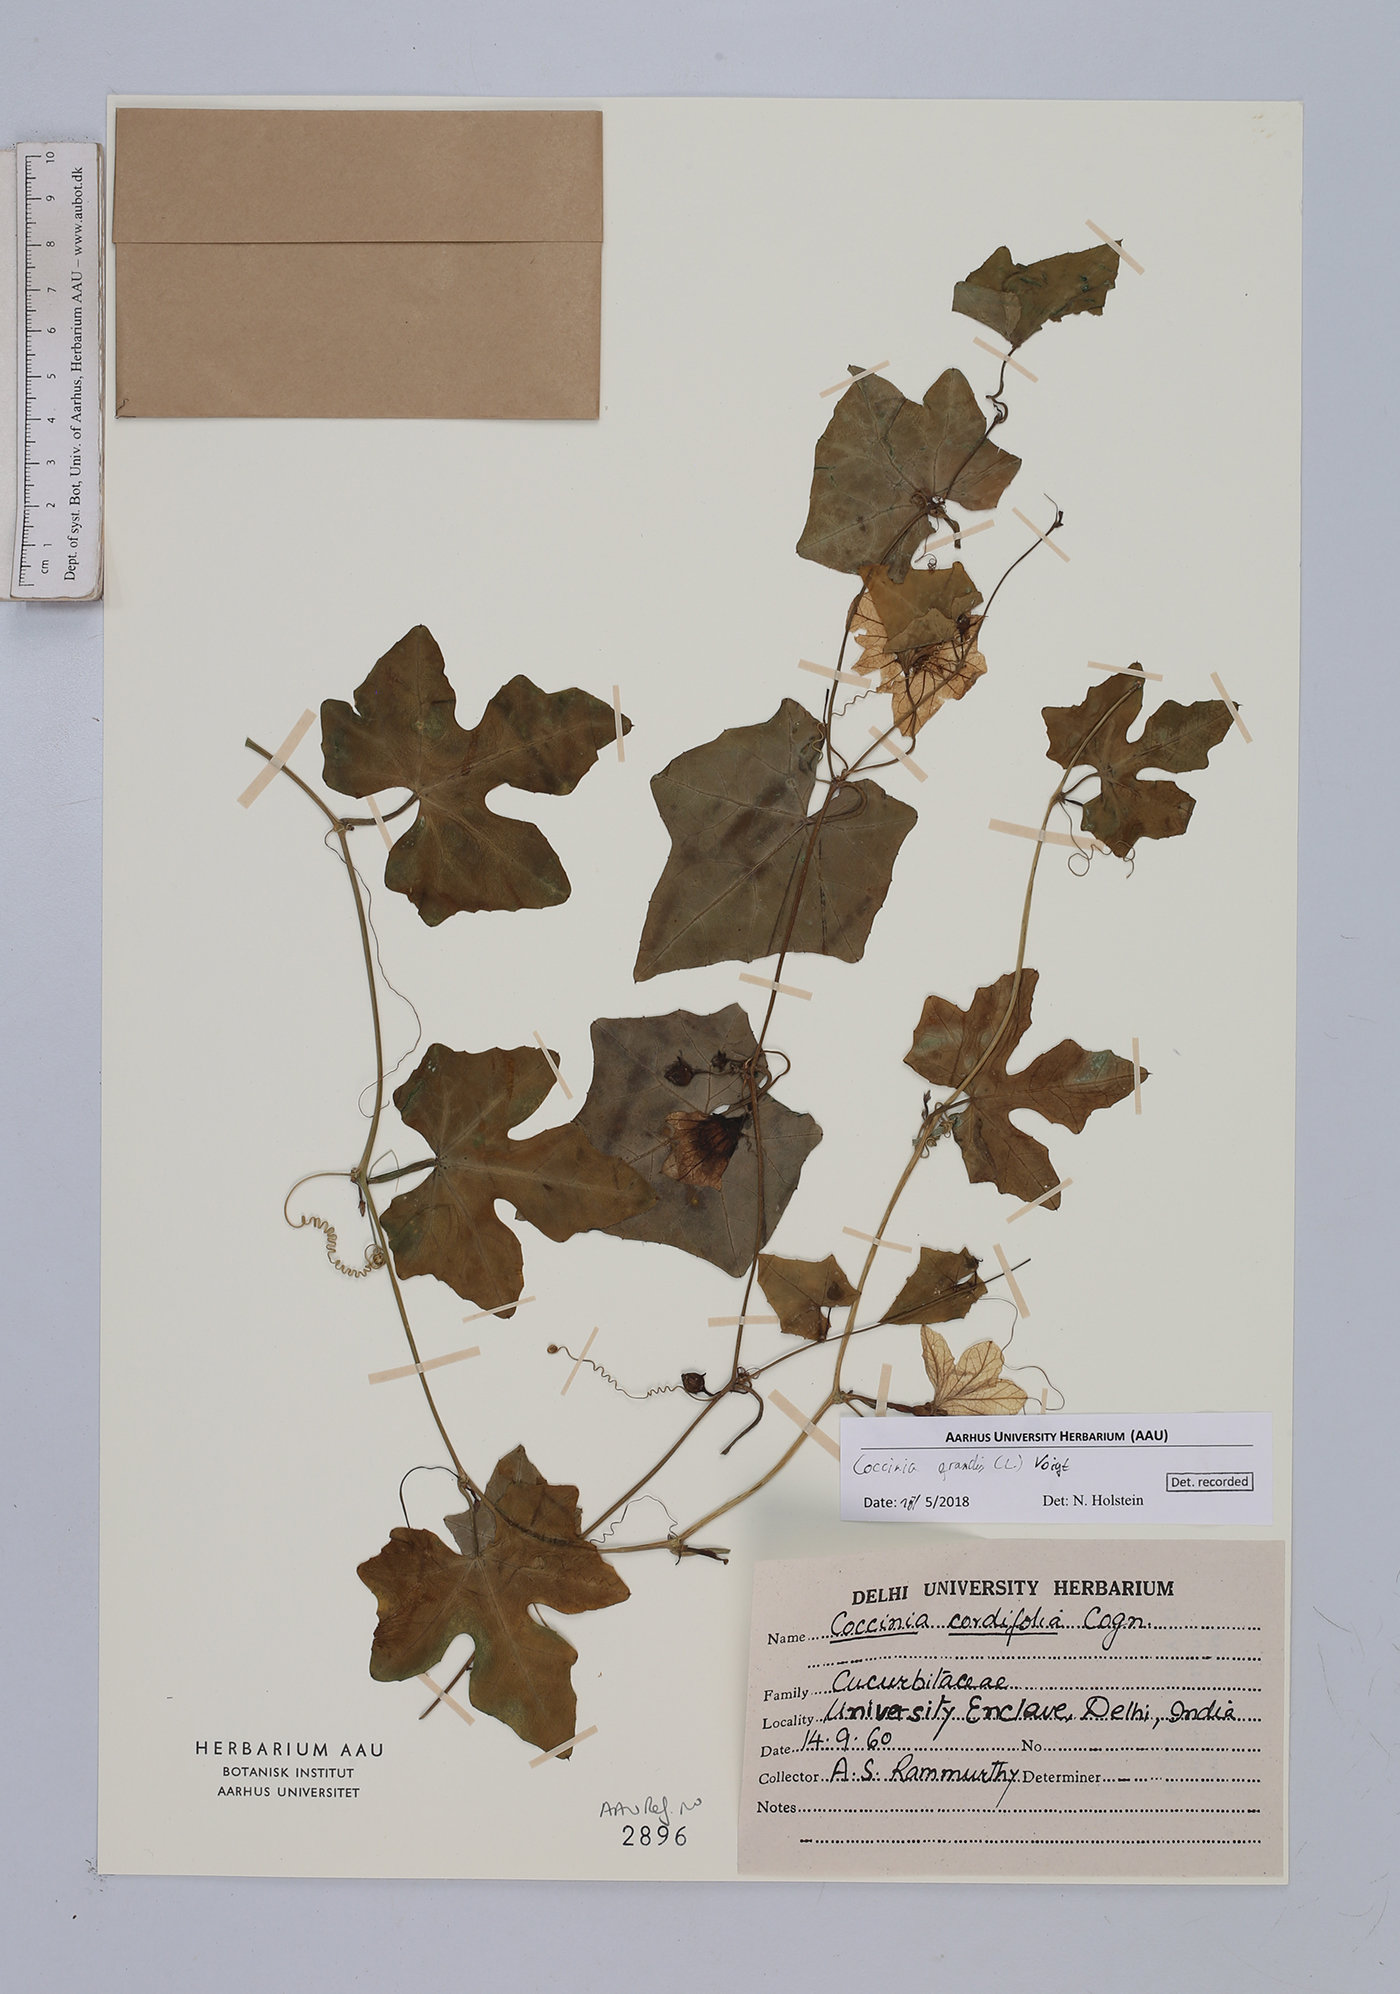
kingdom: Plantae
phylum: Tracheophyta
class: Magnoliopsida
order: Cucurbitales
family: Cucurbitaceae
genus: Coccinia
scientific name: Coccinia grandis
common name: Ivy gourd
